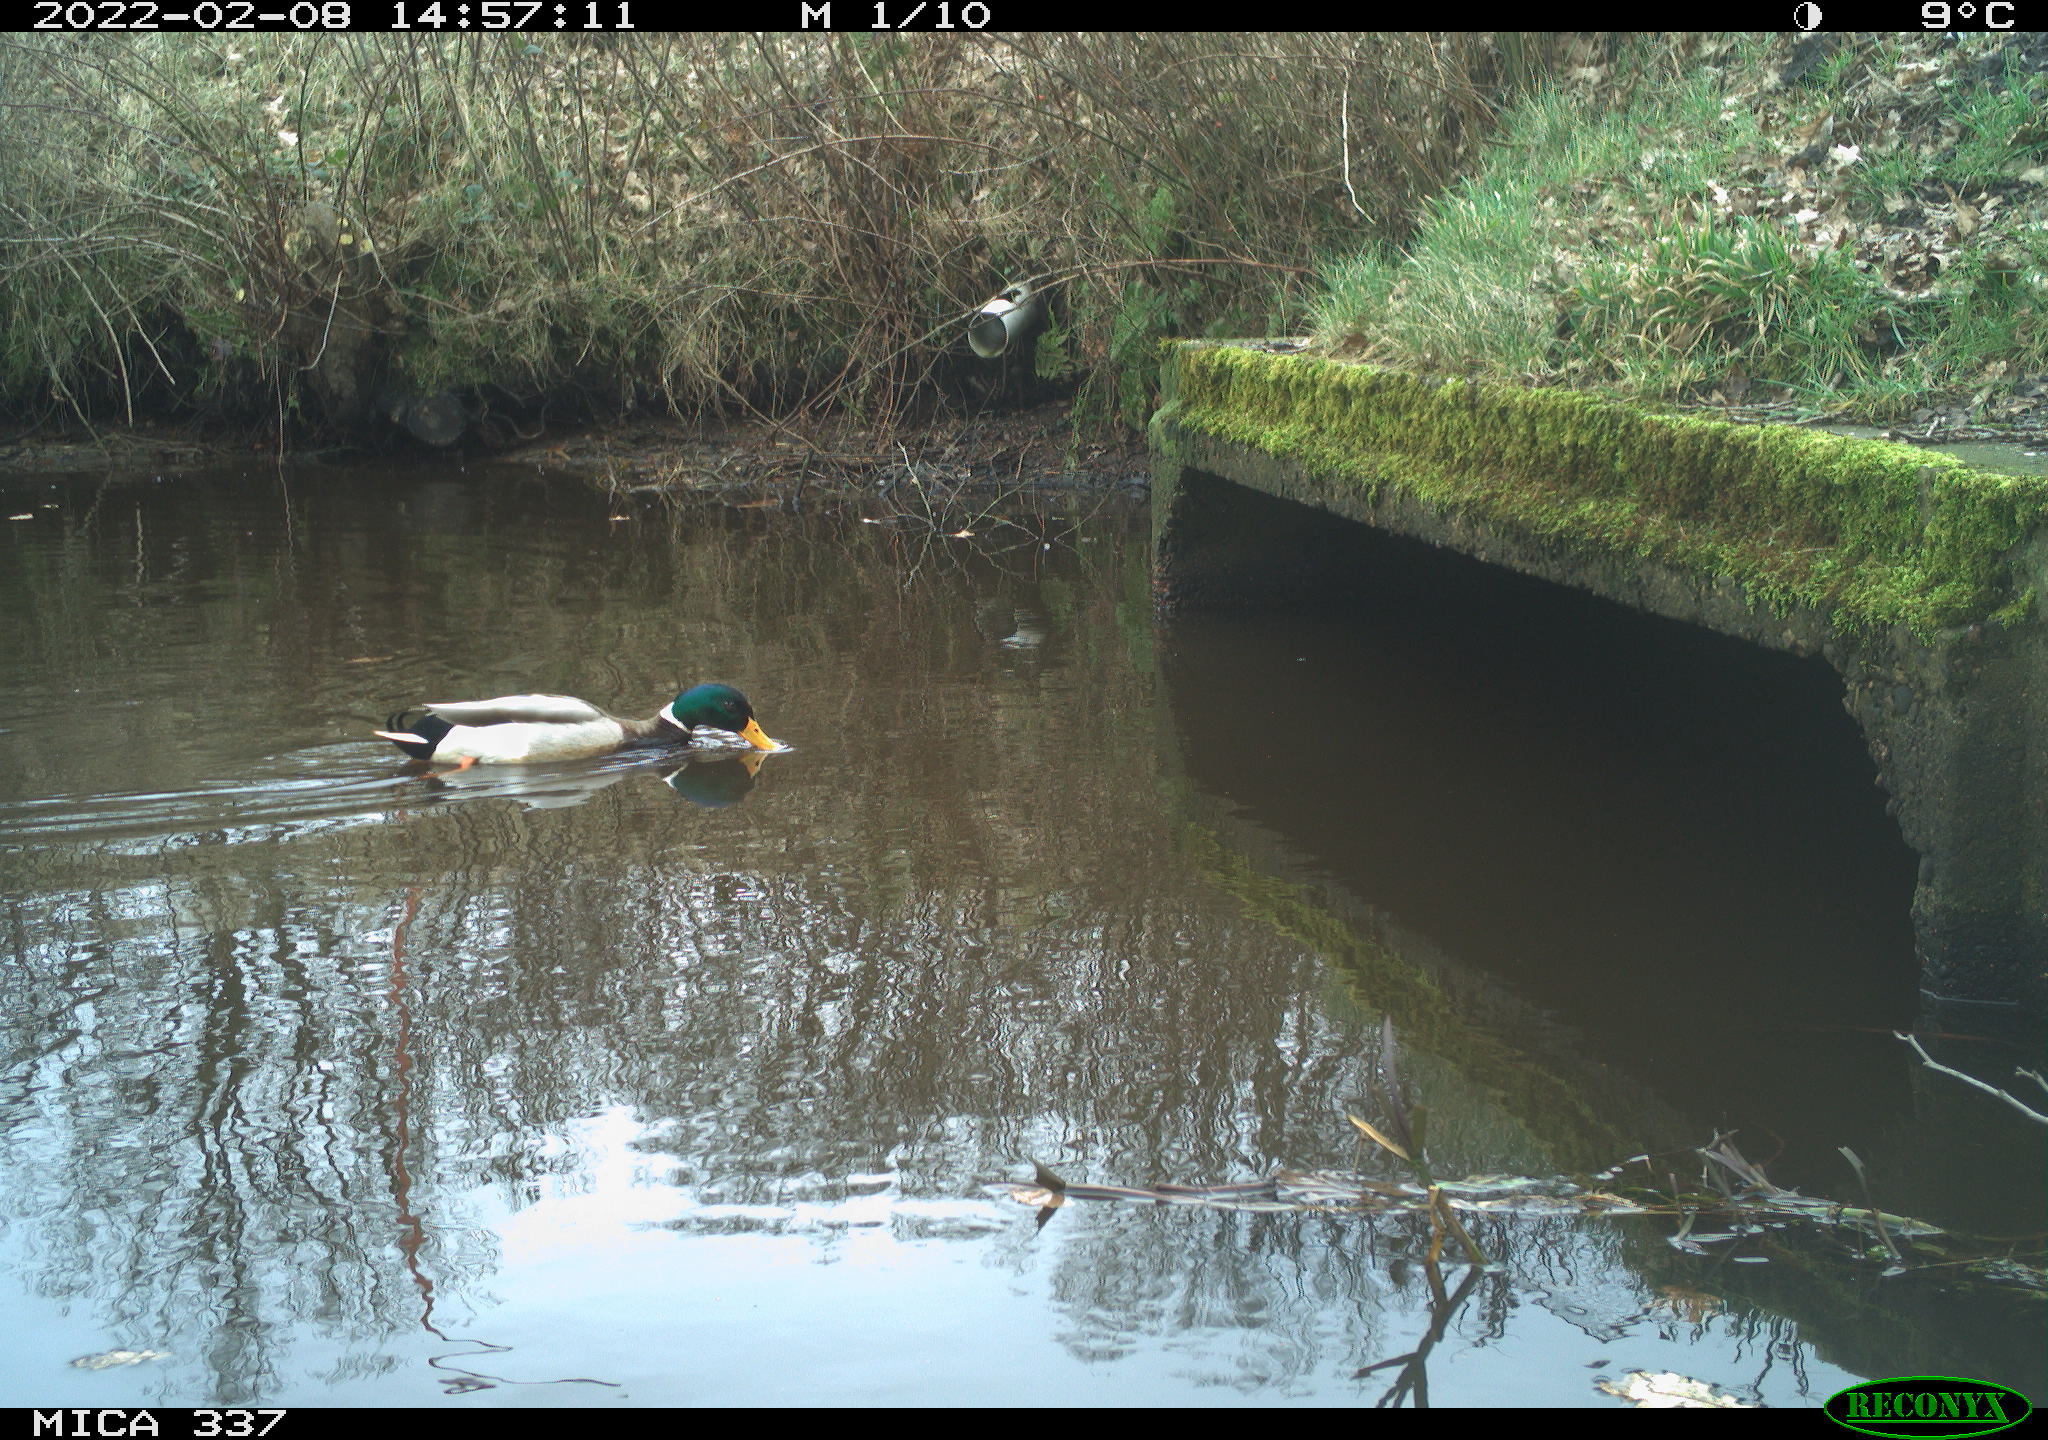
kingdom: Animalia
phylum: Chordata
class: Aves
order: Anseriformes
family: Anatidae
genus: Anas
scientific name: Anas platyrhynchos
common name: Mallard
